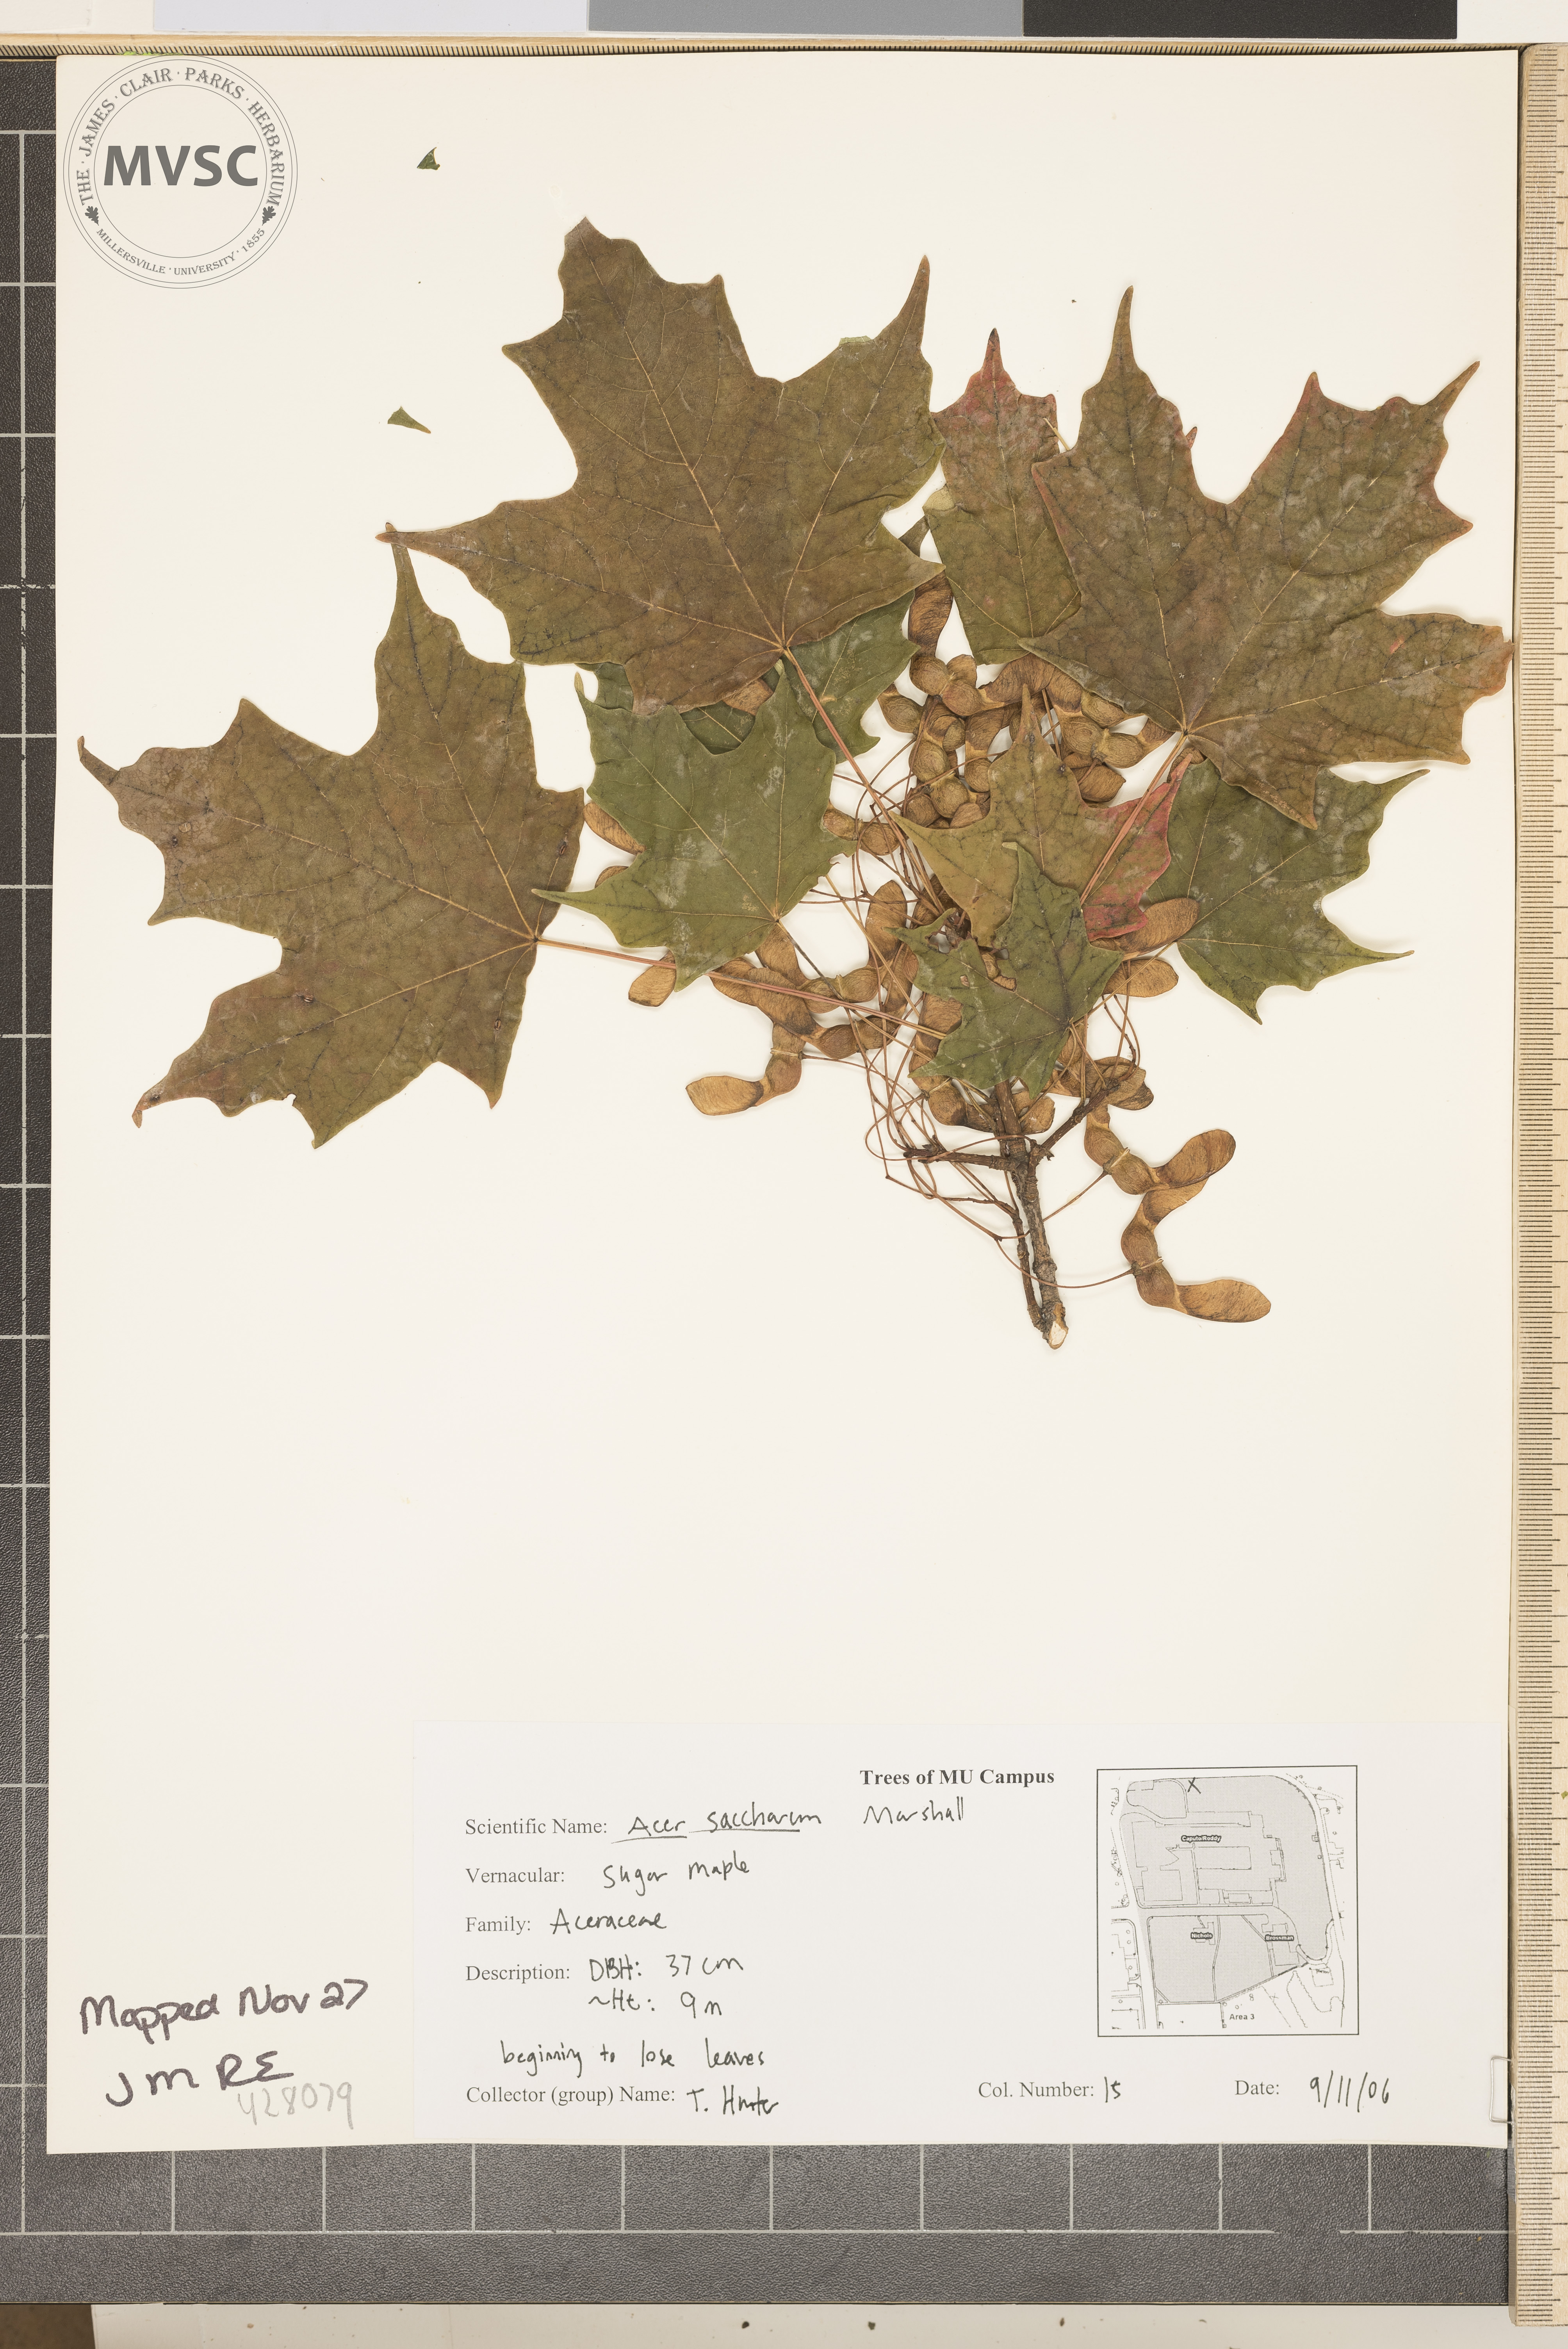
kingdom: Plantae
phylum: Tracheophyta
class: Magnoliopsida
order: Sapindales
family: Sapindaceae
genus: Acer
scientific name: Acer saccharum
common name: Sugar Maple
